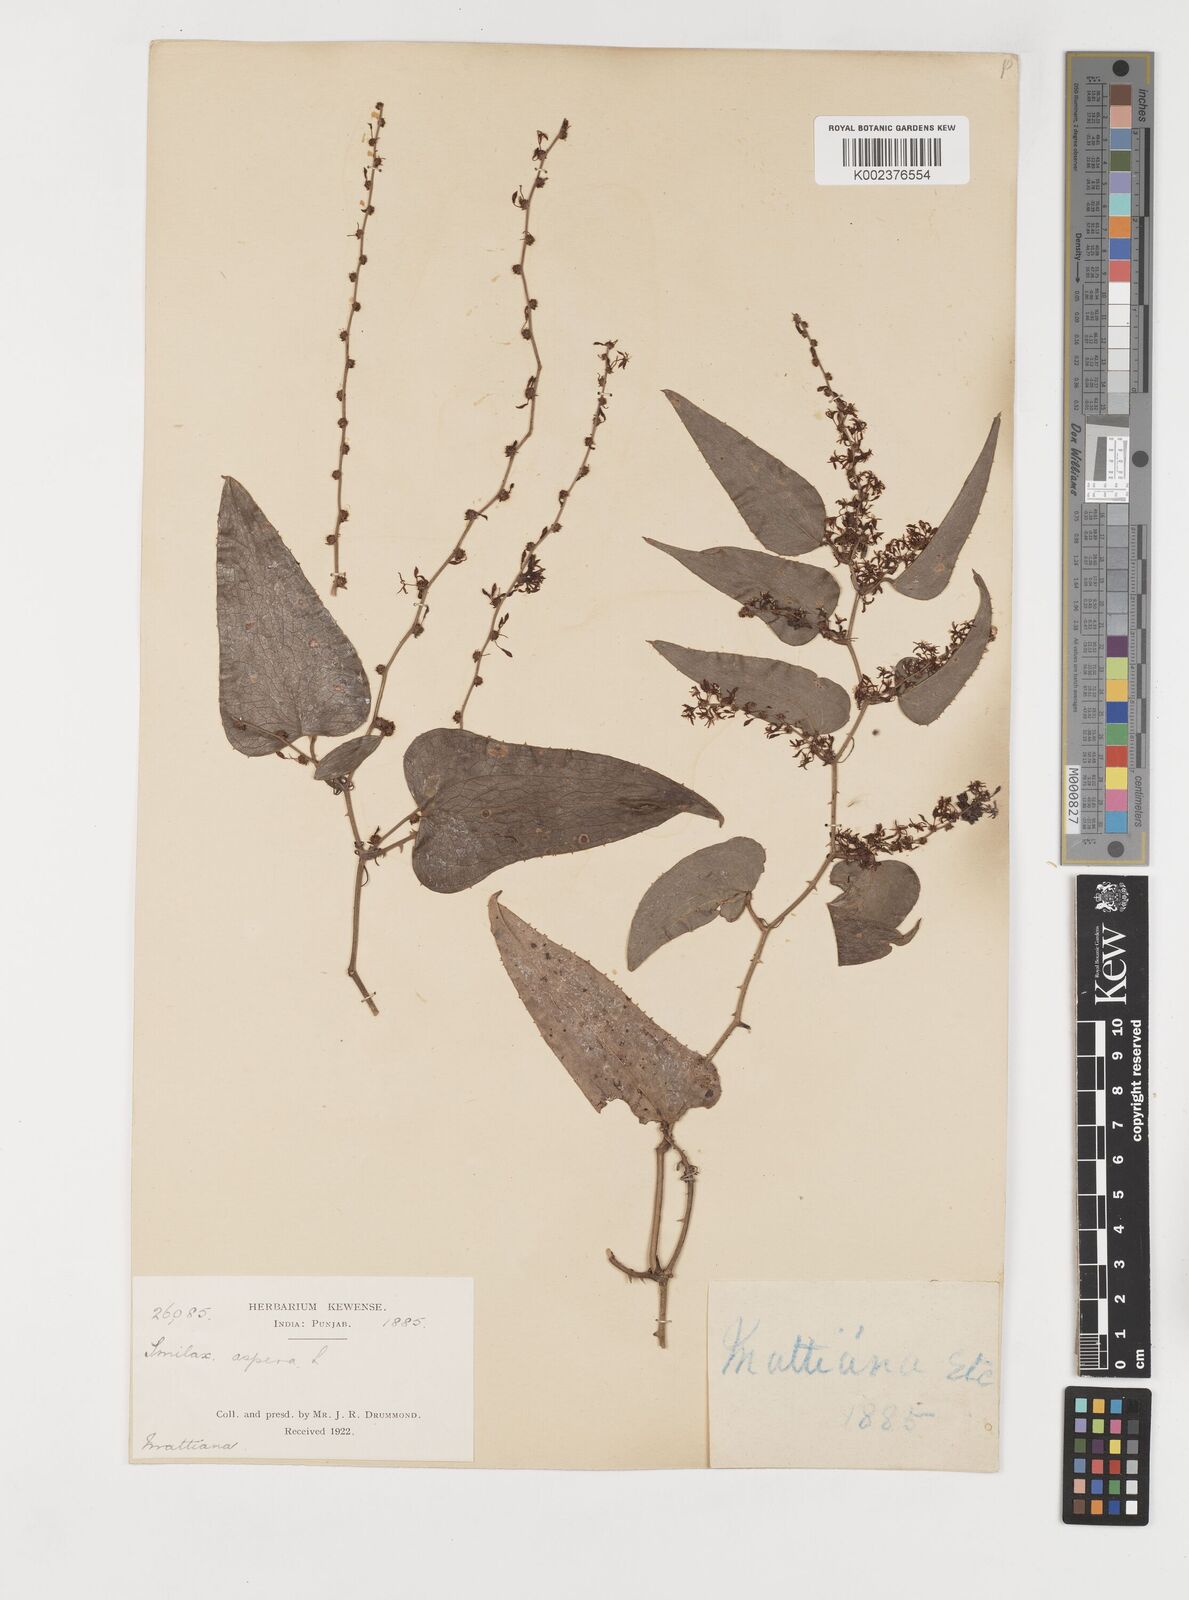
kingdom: Plantae
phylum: Tracheophyta
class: Liliopsida
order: Liliales
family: Smilacaceae
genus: Smilax
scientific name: Smilax aspera
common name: Common smilax
